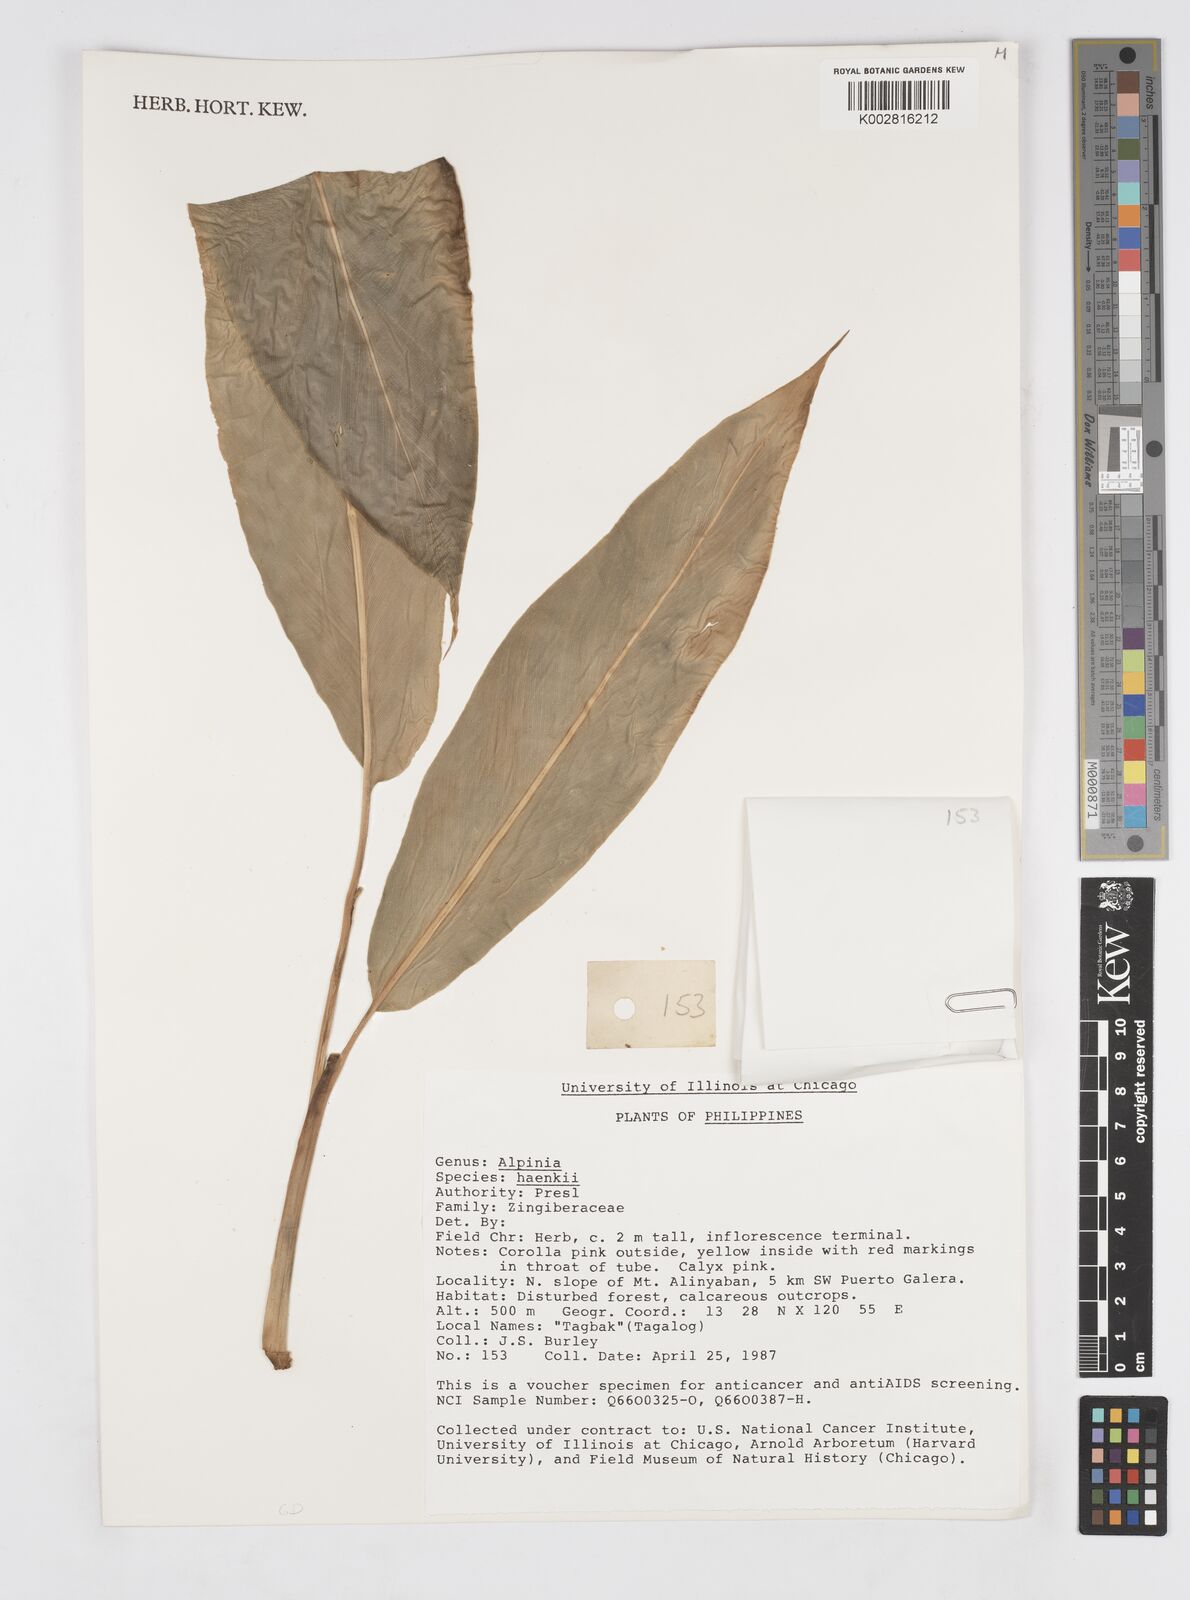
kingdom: Plantae
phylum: Tracheophyta
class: Liliopsida
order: Zingiberales
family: Zingiberaceae
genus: Alpinia
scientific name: Alpinia haenkei
